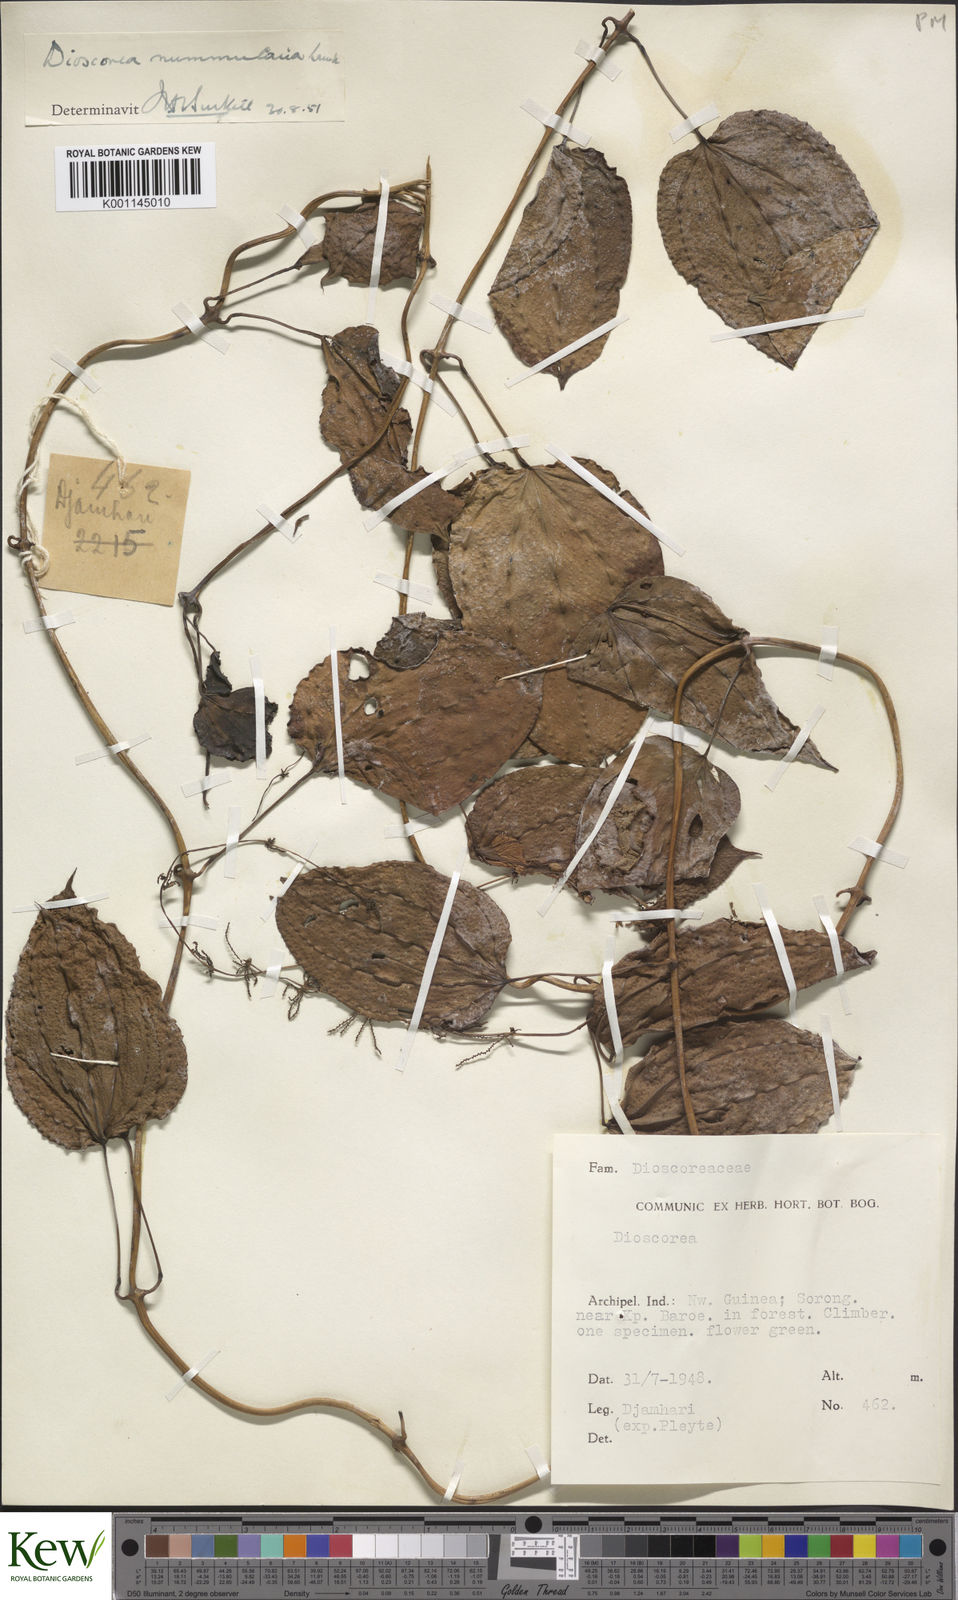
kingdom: Plantae
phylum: Tracheophyta
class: Liliopsida
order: Dioscoreales
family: Dioscoreaceae
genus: Dioscorea
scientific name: Dioscorea nummularia
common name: Pacific yam
